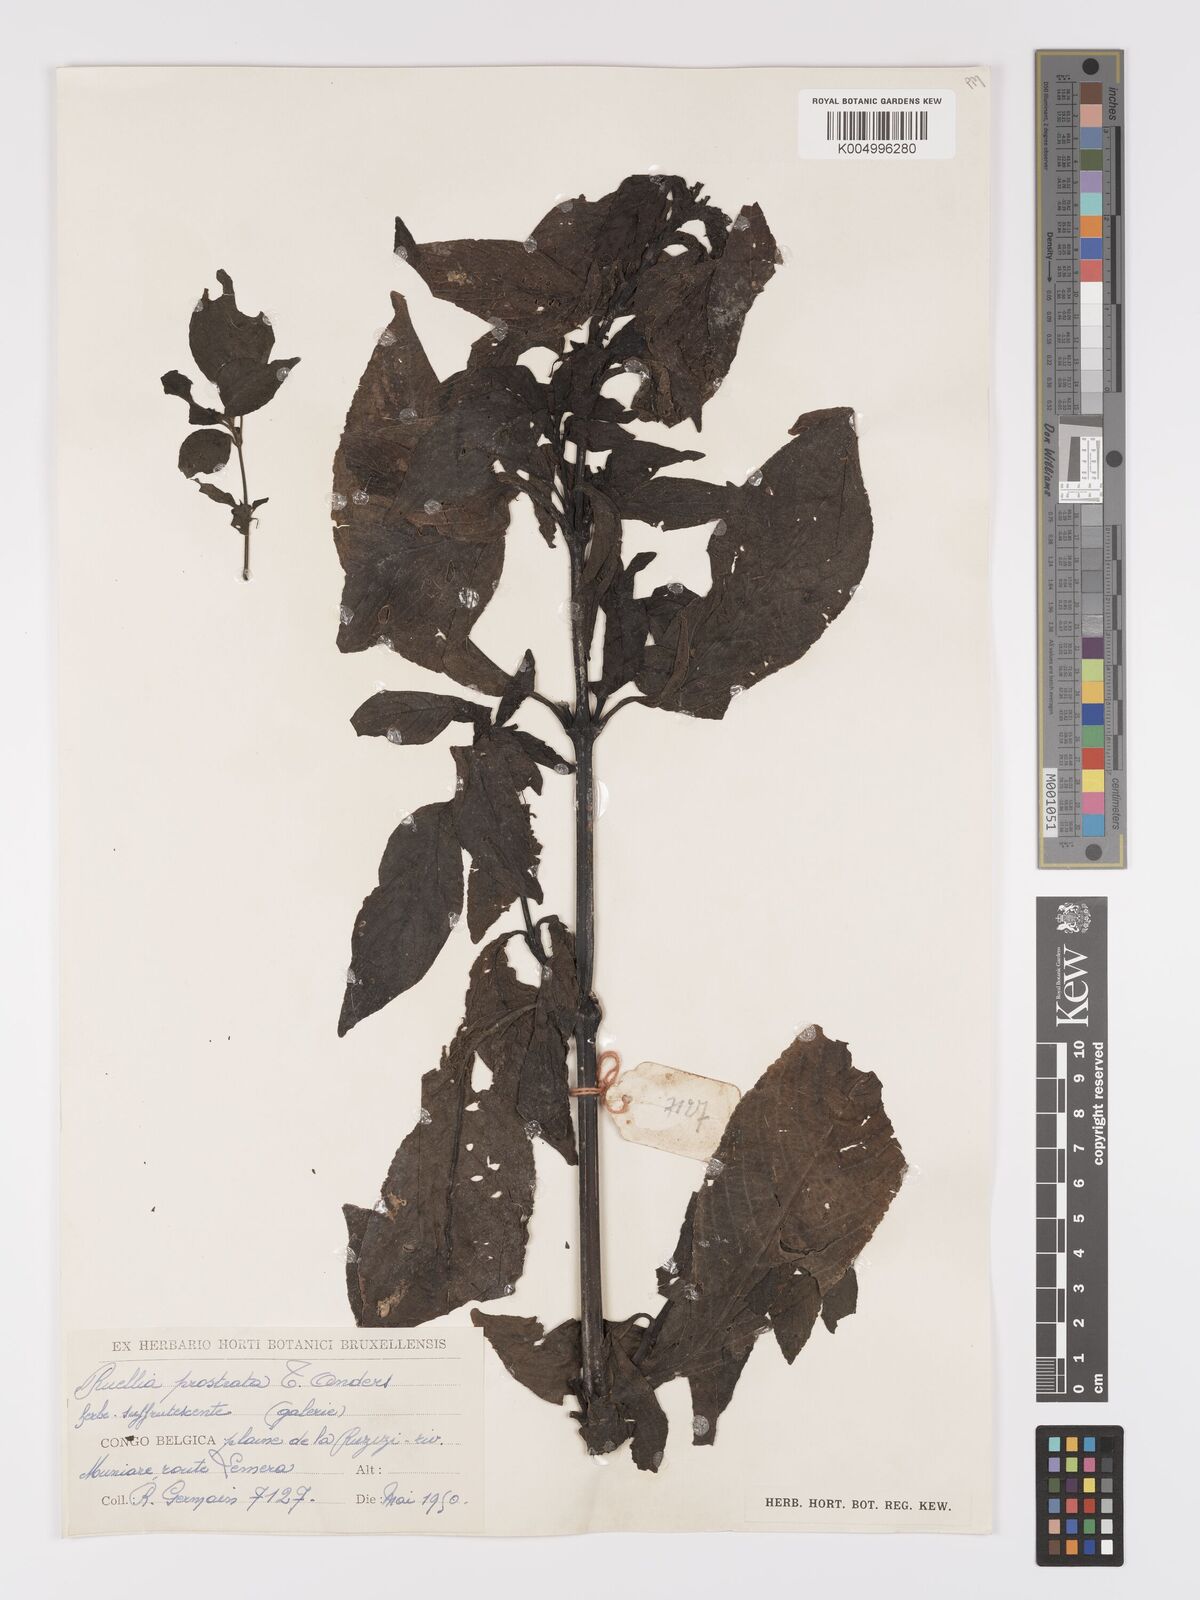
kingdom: Plantae
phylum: Tracheophyta
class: Magnoliopsida
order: Lamiales
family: Acanthaceae
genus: Ruellia
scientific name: Ruellia
